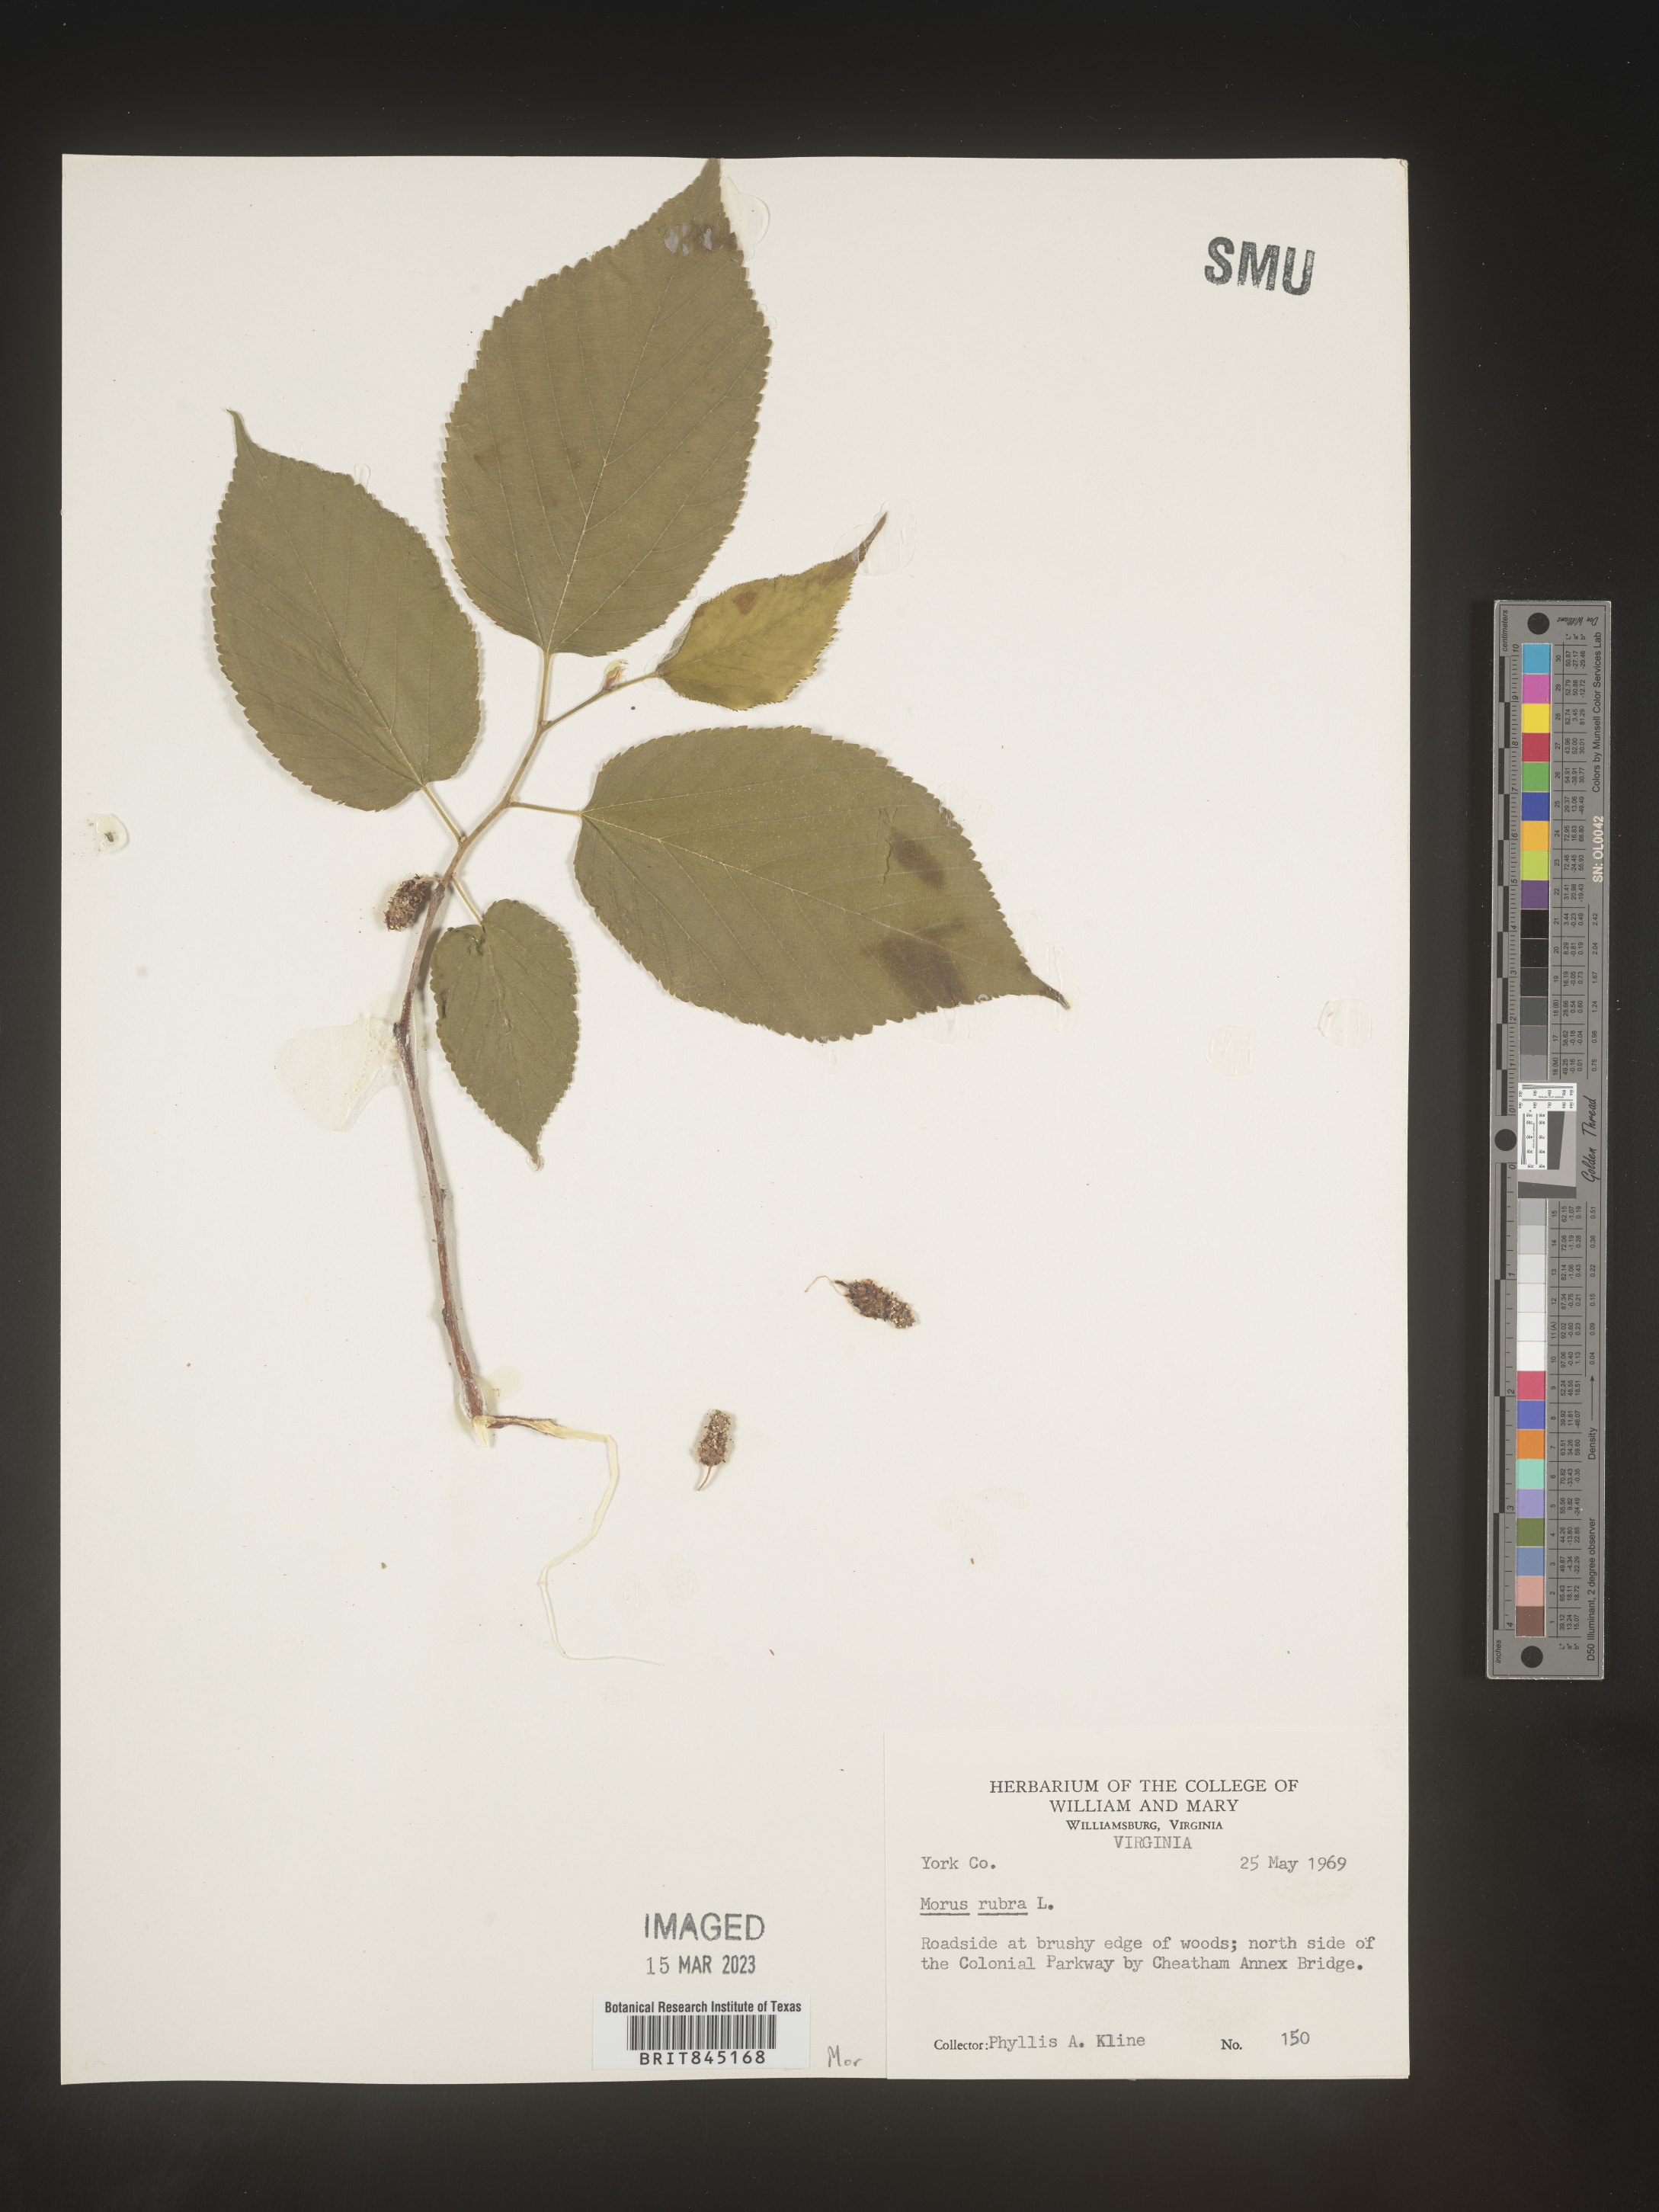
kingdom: Plantae
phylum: Tracheophyta
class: Magnoliopsida
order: Rosales
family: Moraceae
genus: Morus
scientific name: Morus rubra
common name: Red mulberry
